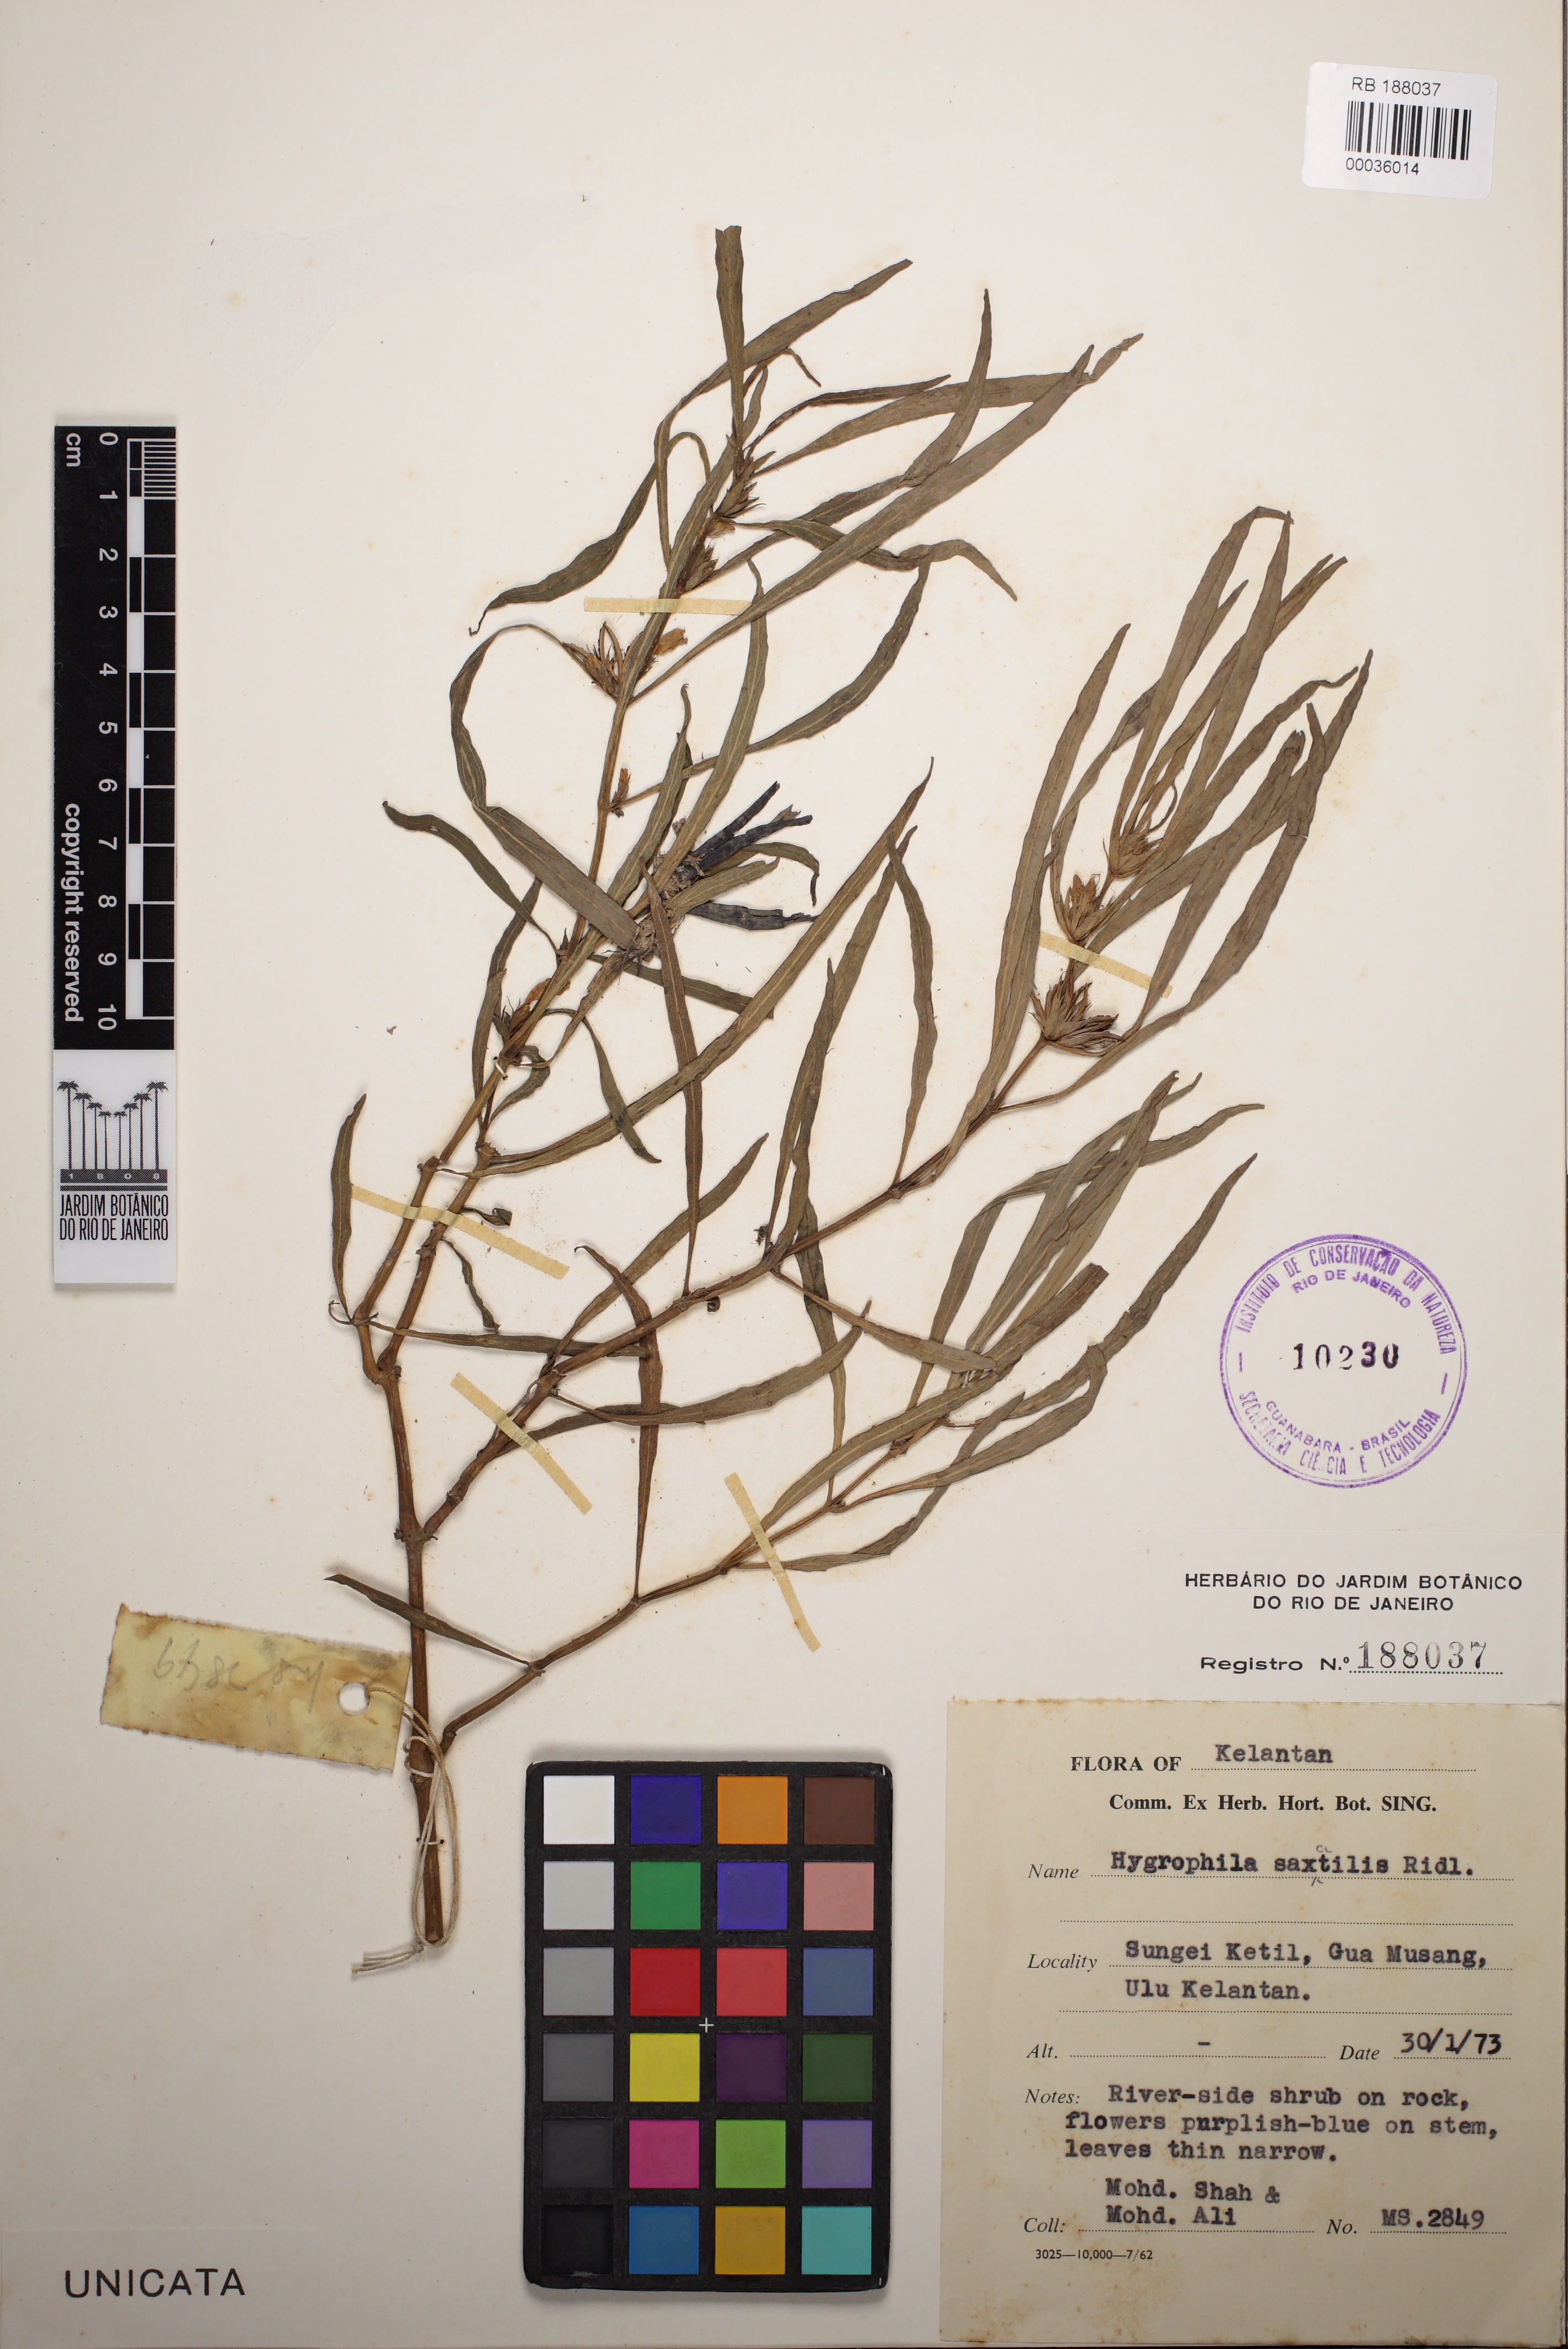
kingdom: Plantae
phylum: Tracheophyta
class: Magnoliopsida
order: Lamiales
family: Acanthaceae
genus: Hygrophila
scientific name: Hygrophila saxatilis
